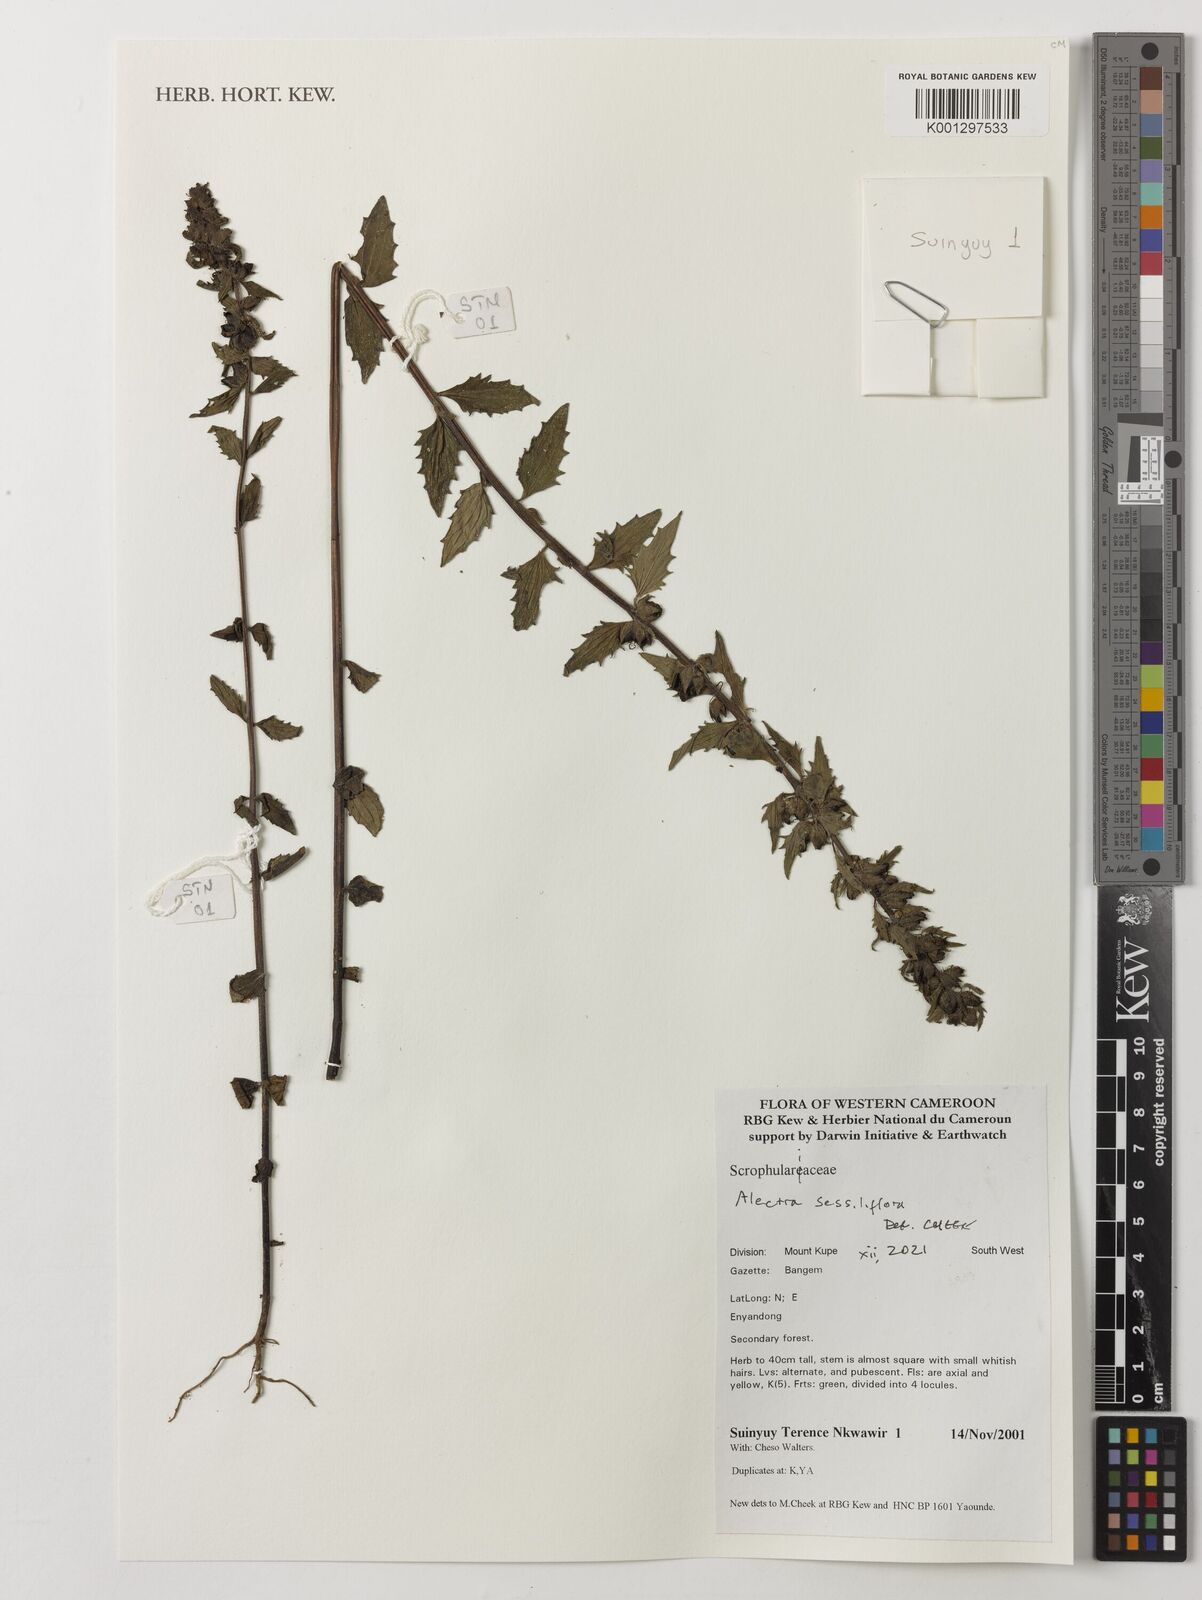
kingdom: Plantae
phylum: Tracheophyta
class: Magnoliopsida
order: Lamiales
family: Orobanchaceae
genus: Alectra
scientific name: Alectra sessiliflora
